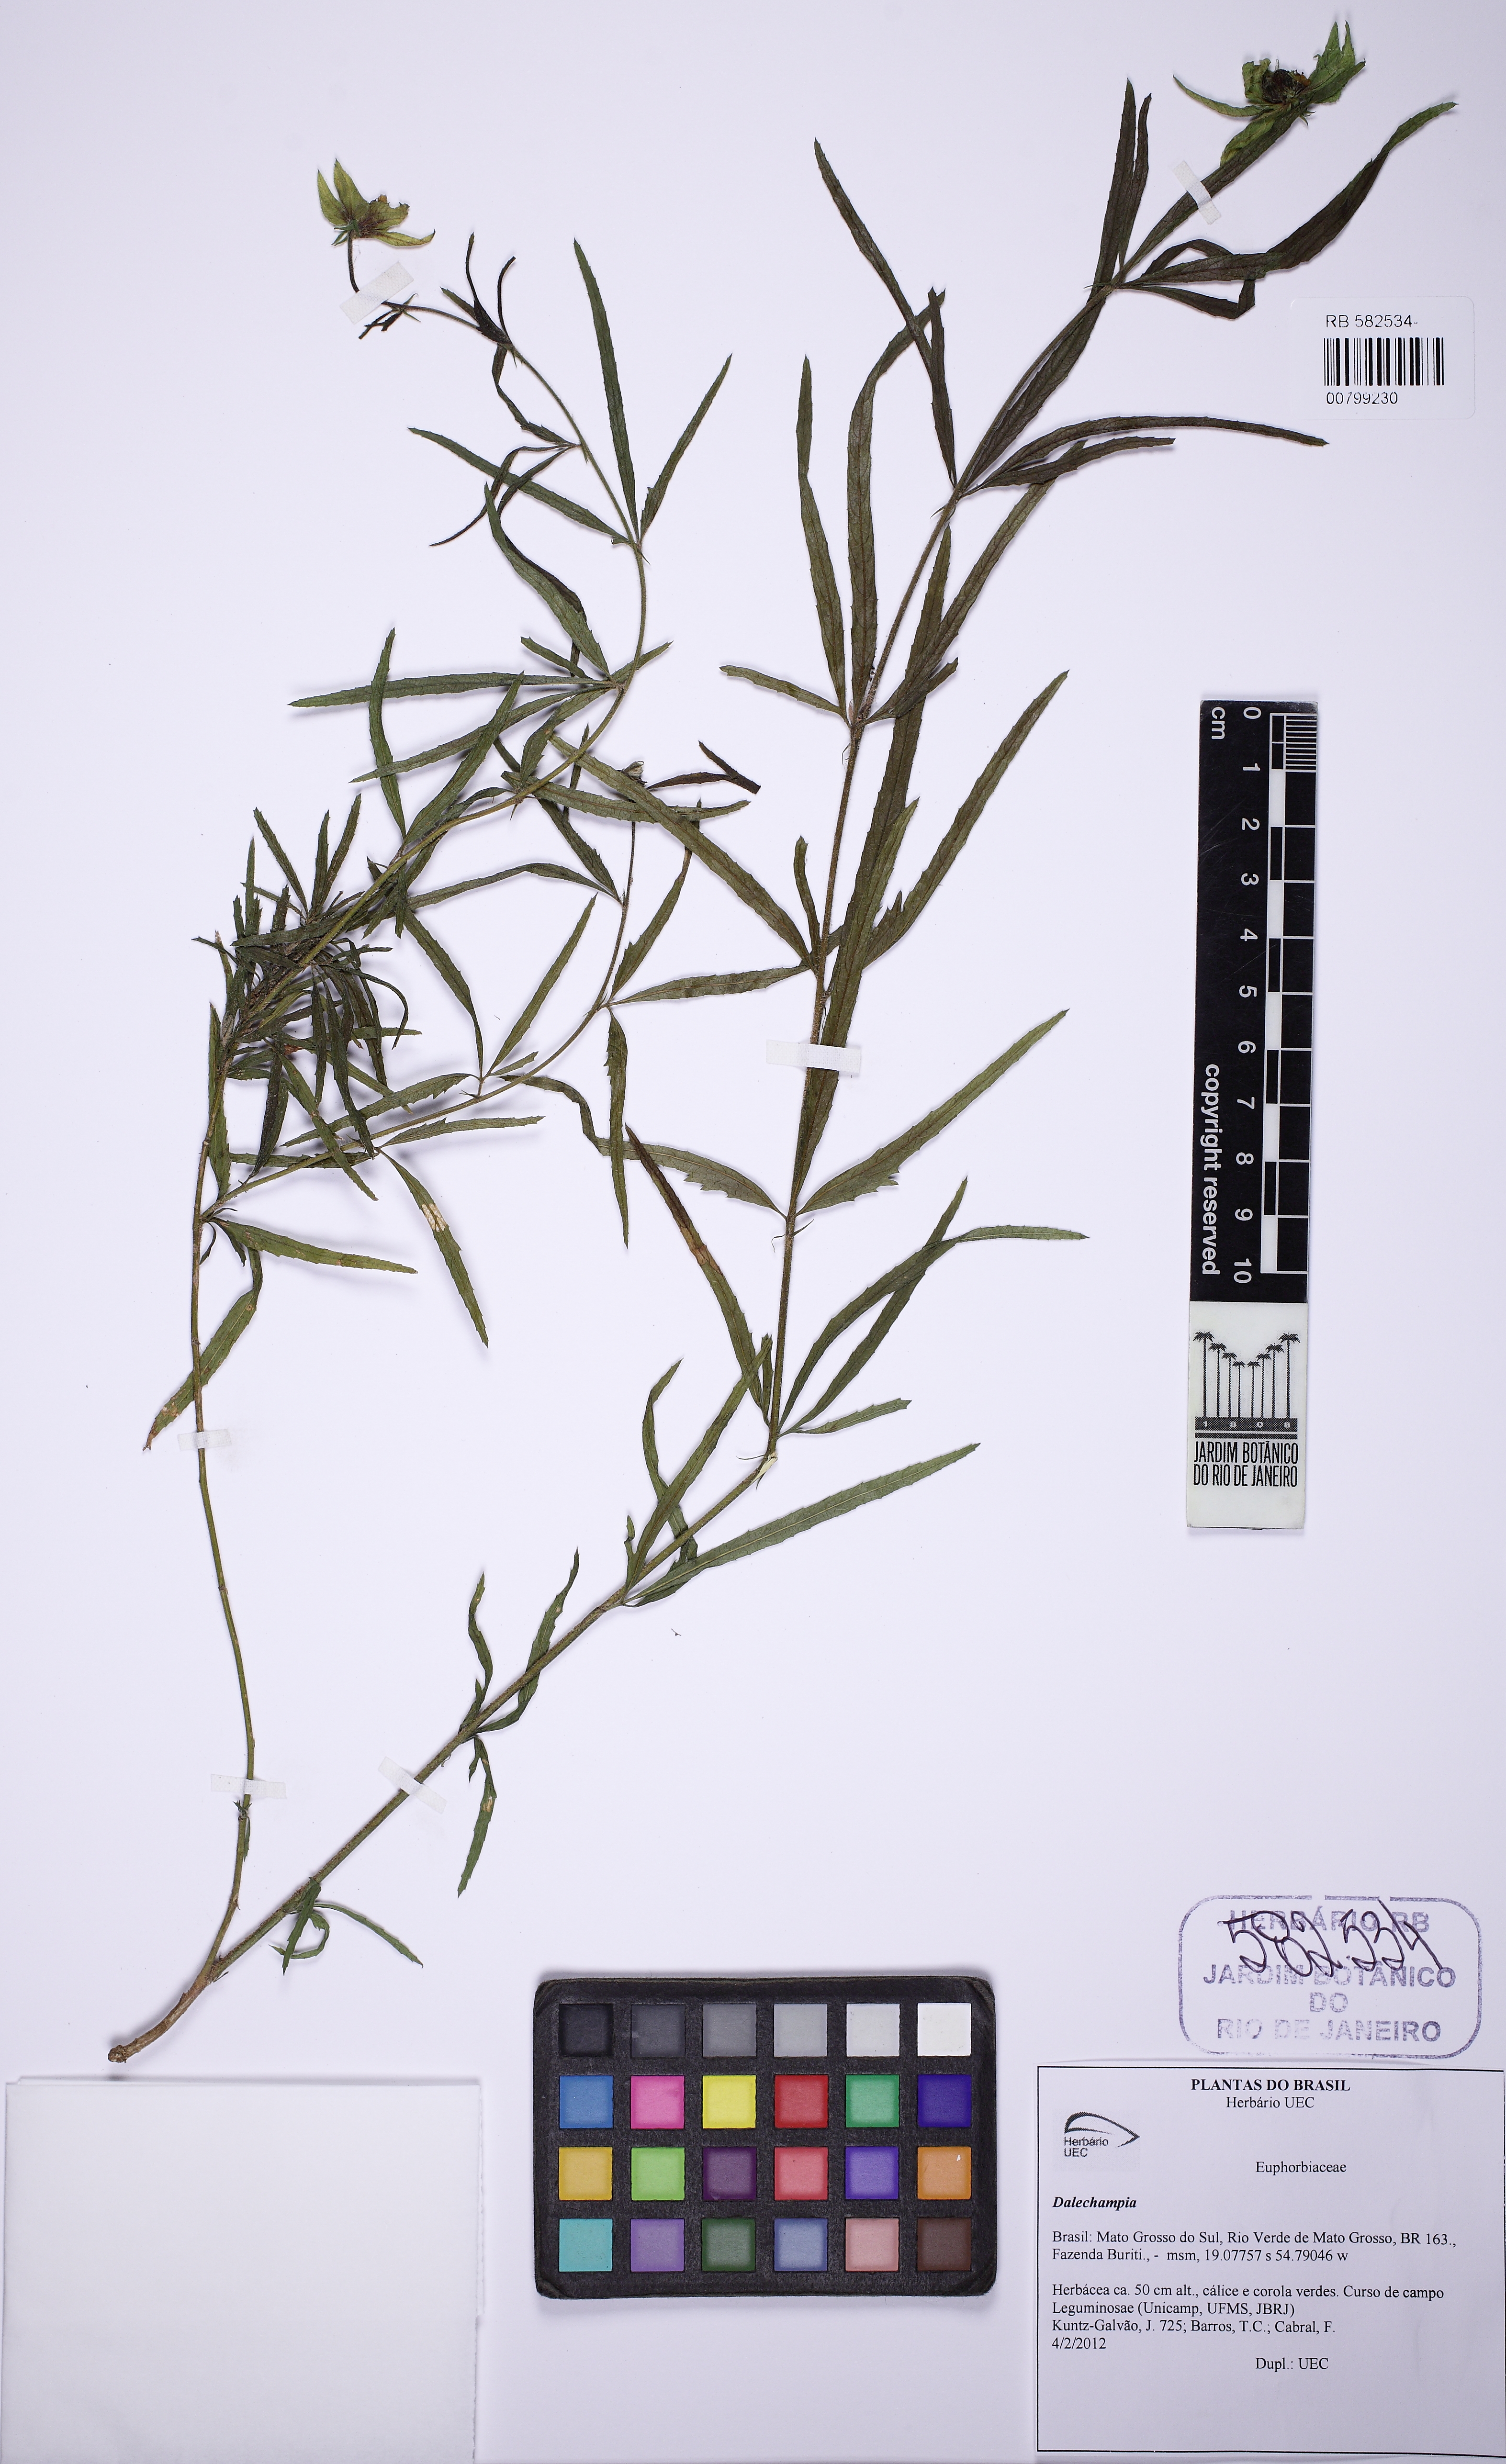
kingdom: Plantae
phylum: Tracheophyta
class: Magnoliopsida
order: Malpighiales
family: Euphorbiaceae
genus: Dalechampia
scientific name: Dalechampia brevipes
